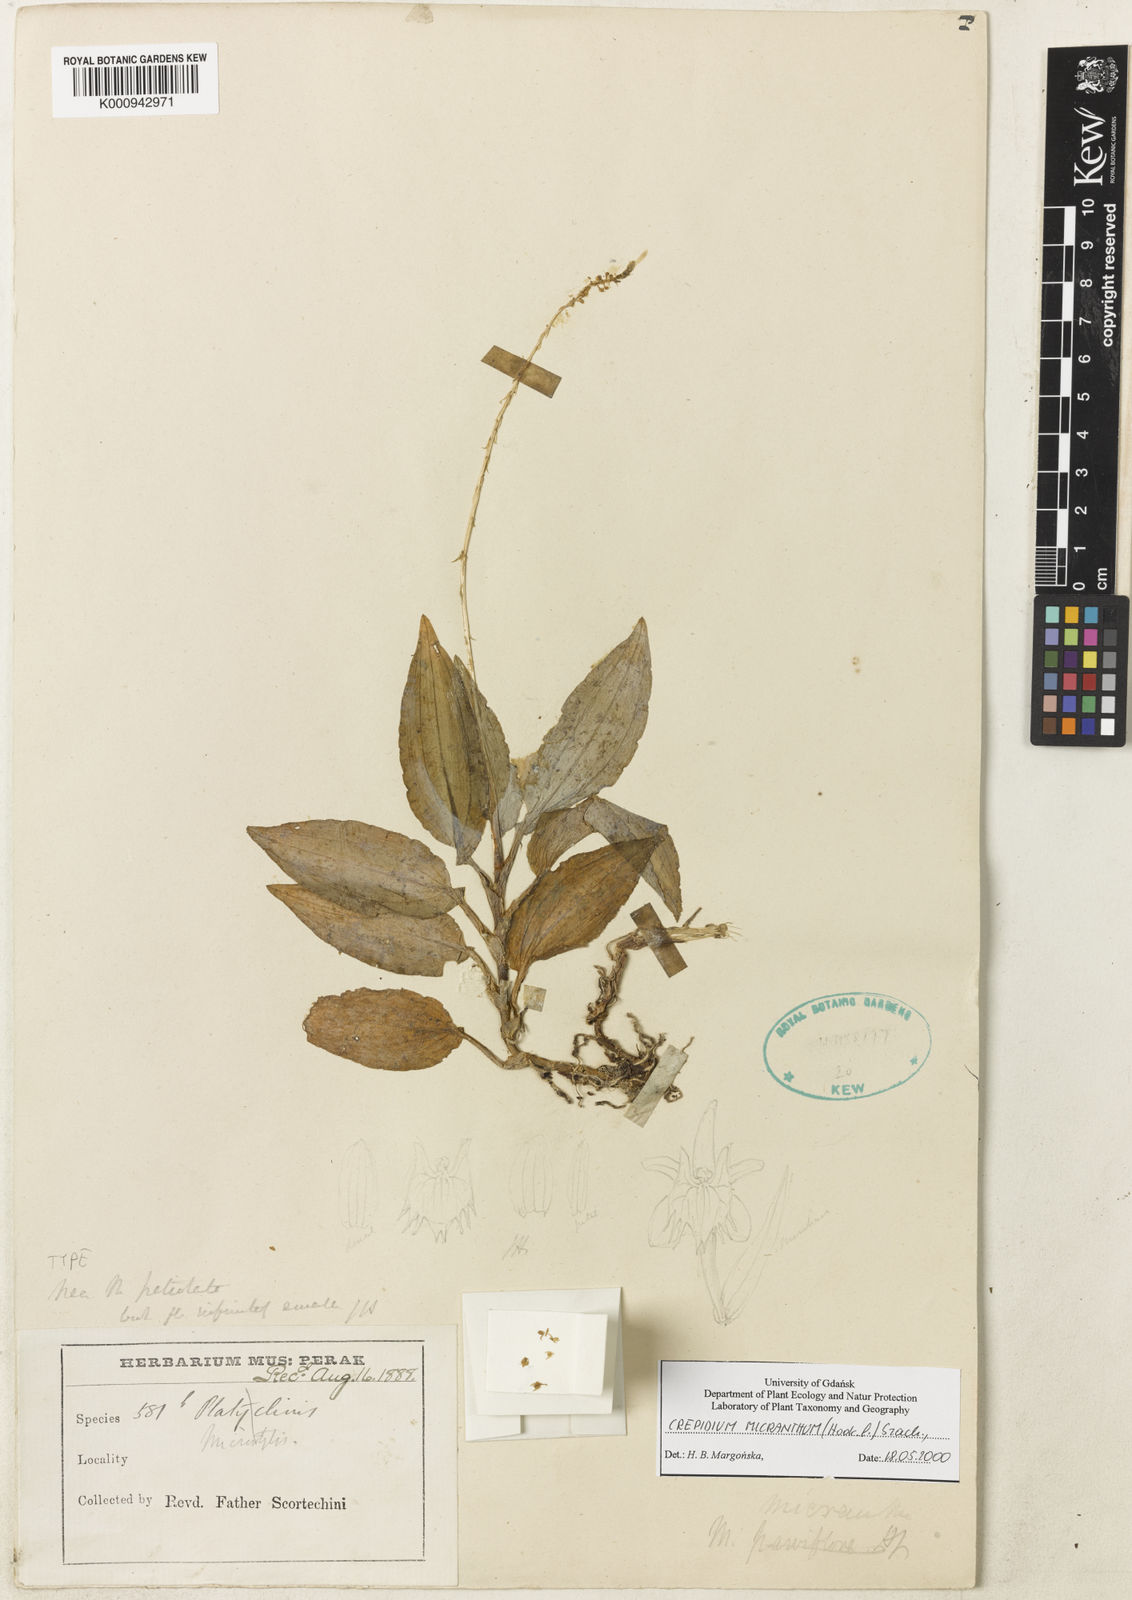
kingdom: Plantae
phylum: Tracheophyta
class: Liliopsida
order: Asparagales
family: Orchidaceae
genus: Crepidium
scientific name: Crepidium micranthum
